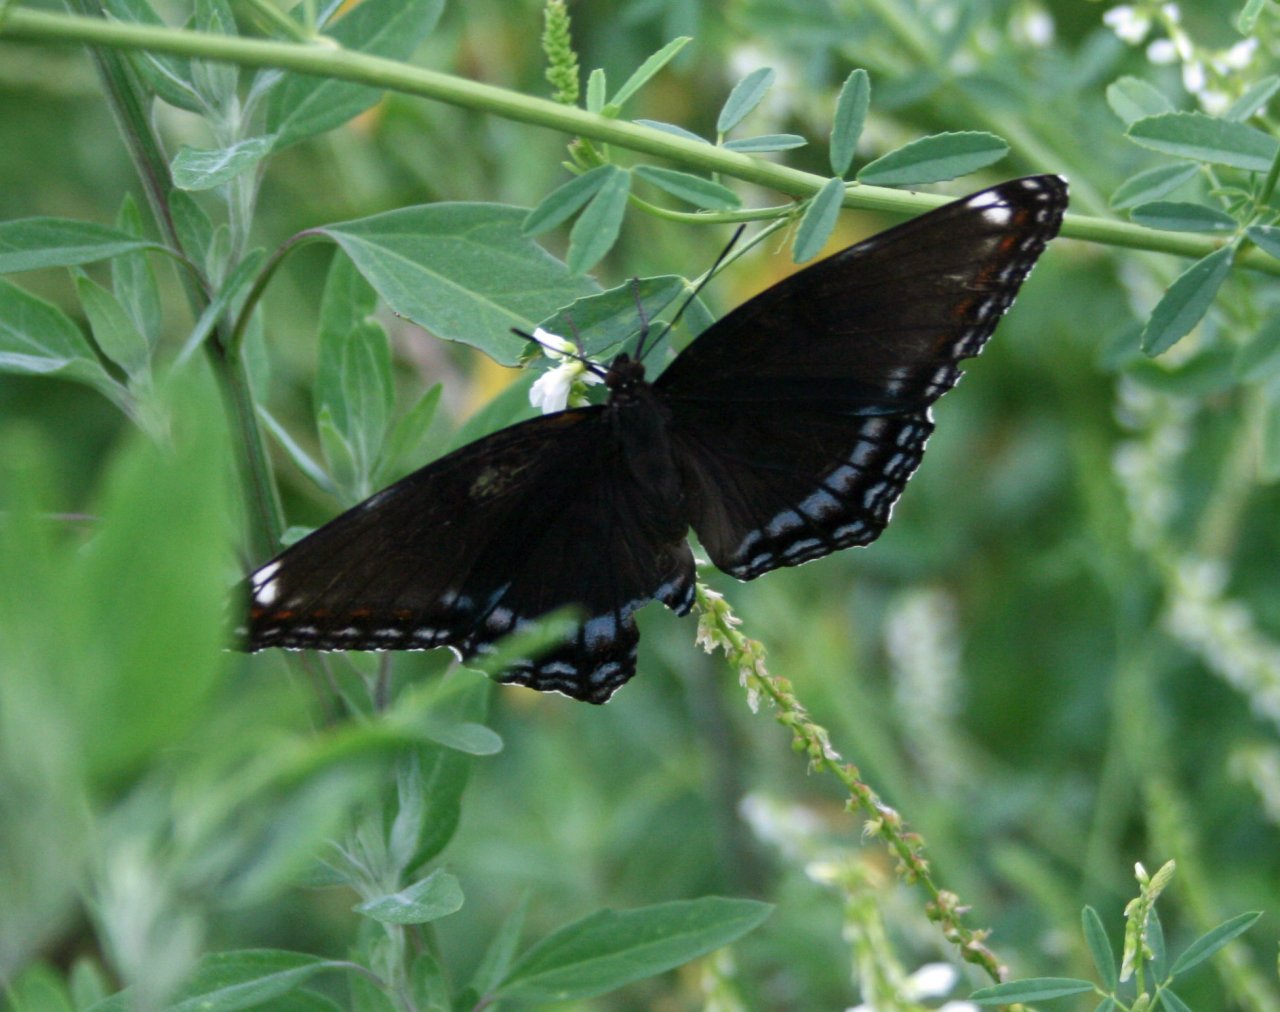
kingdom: Animalia
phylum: Arthropoda
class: Insecta
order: Lepidoptera
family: Nymphalidae
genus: Limenitis
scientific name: Limenitis astyanax
